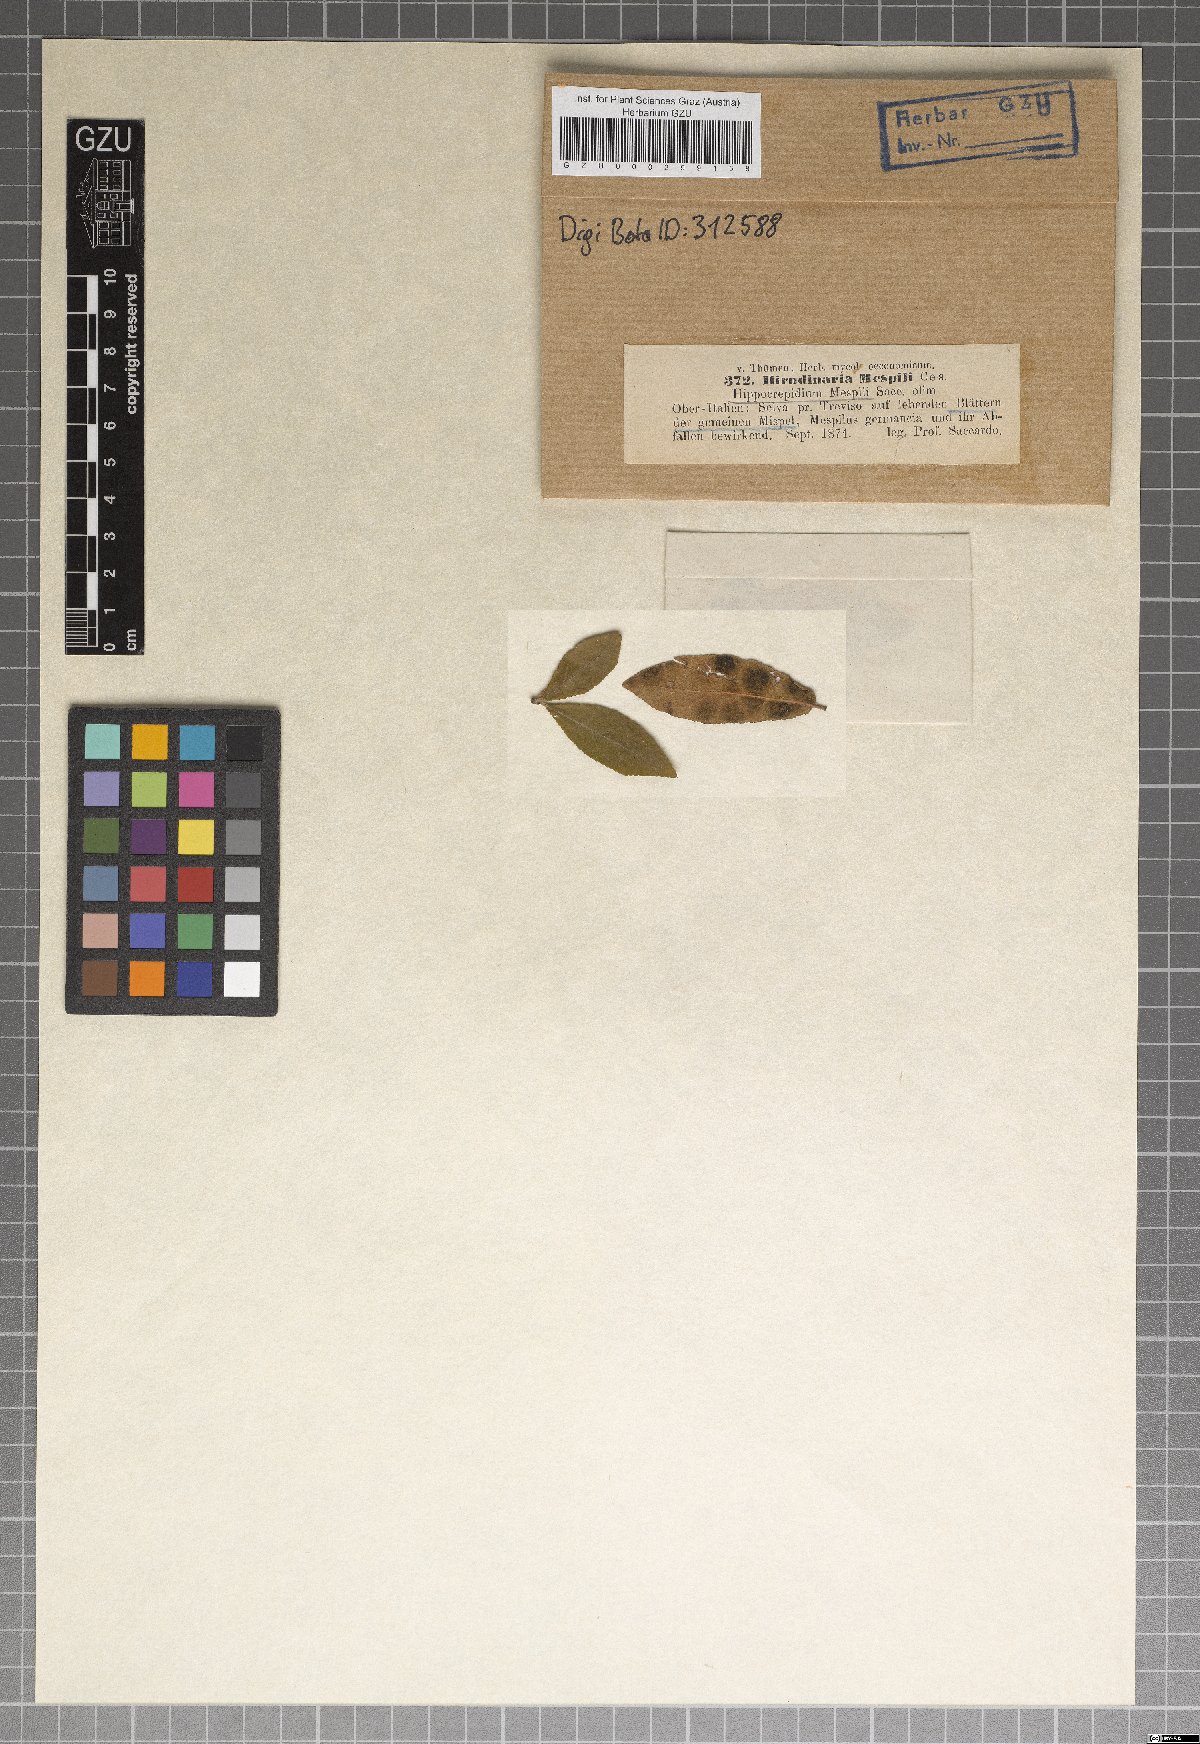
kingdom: Fungi
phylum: Ascomycota
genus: Hirudinaria
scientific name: Hirudinaria
